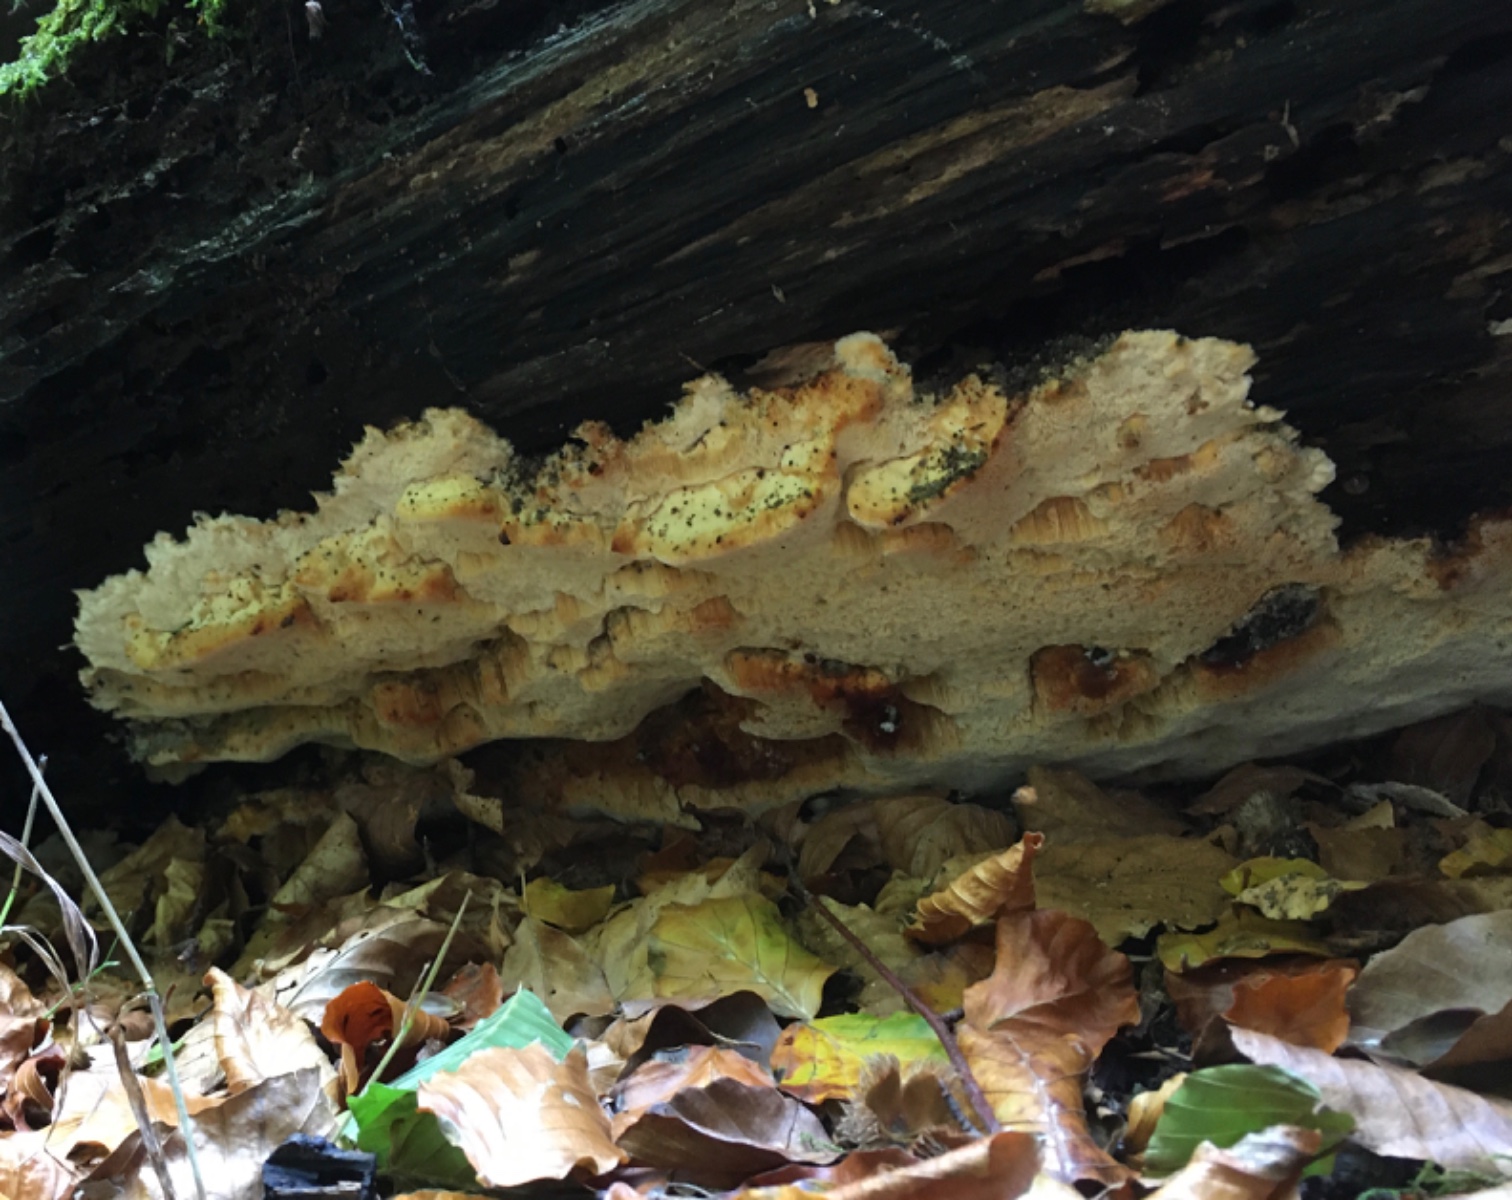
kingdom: Fungi
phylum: Basidiomycota
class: Agaricomycetes
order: Polyporales
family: Steccherinaceae
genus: Antrodiella
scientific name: Antrodiella mentschulensis
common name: abrikosporesvamp
